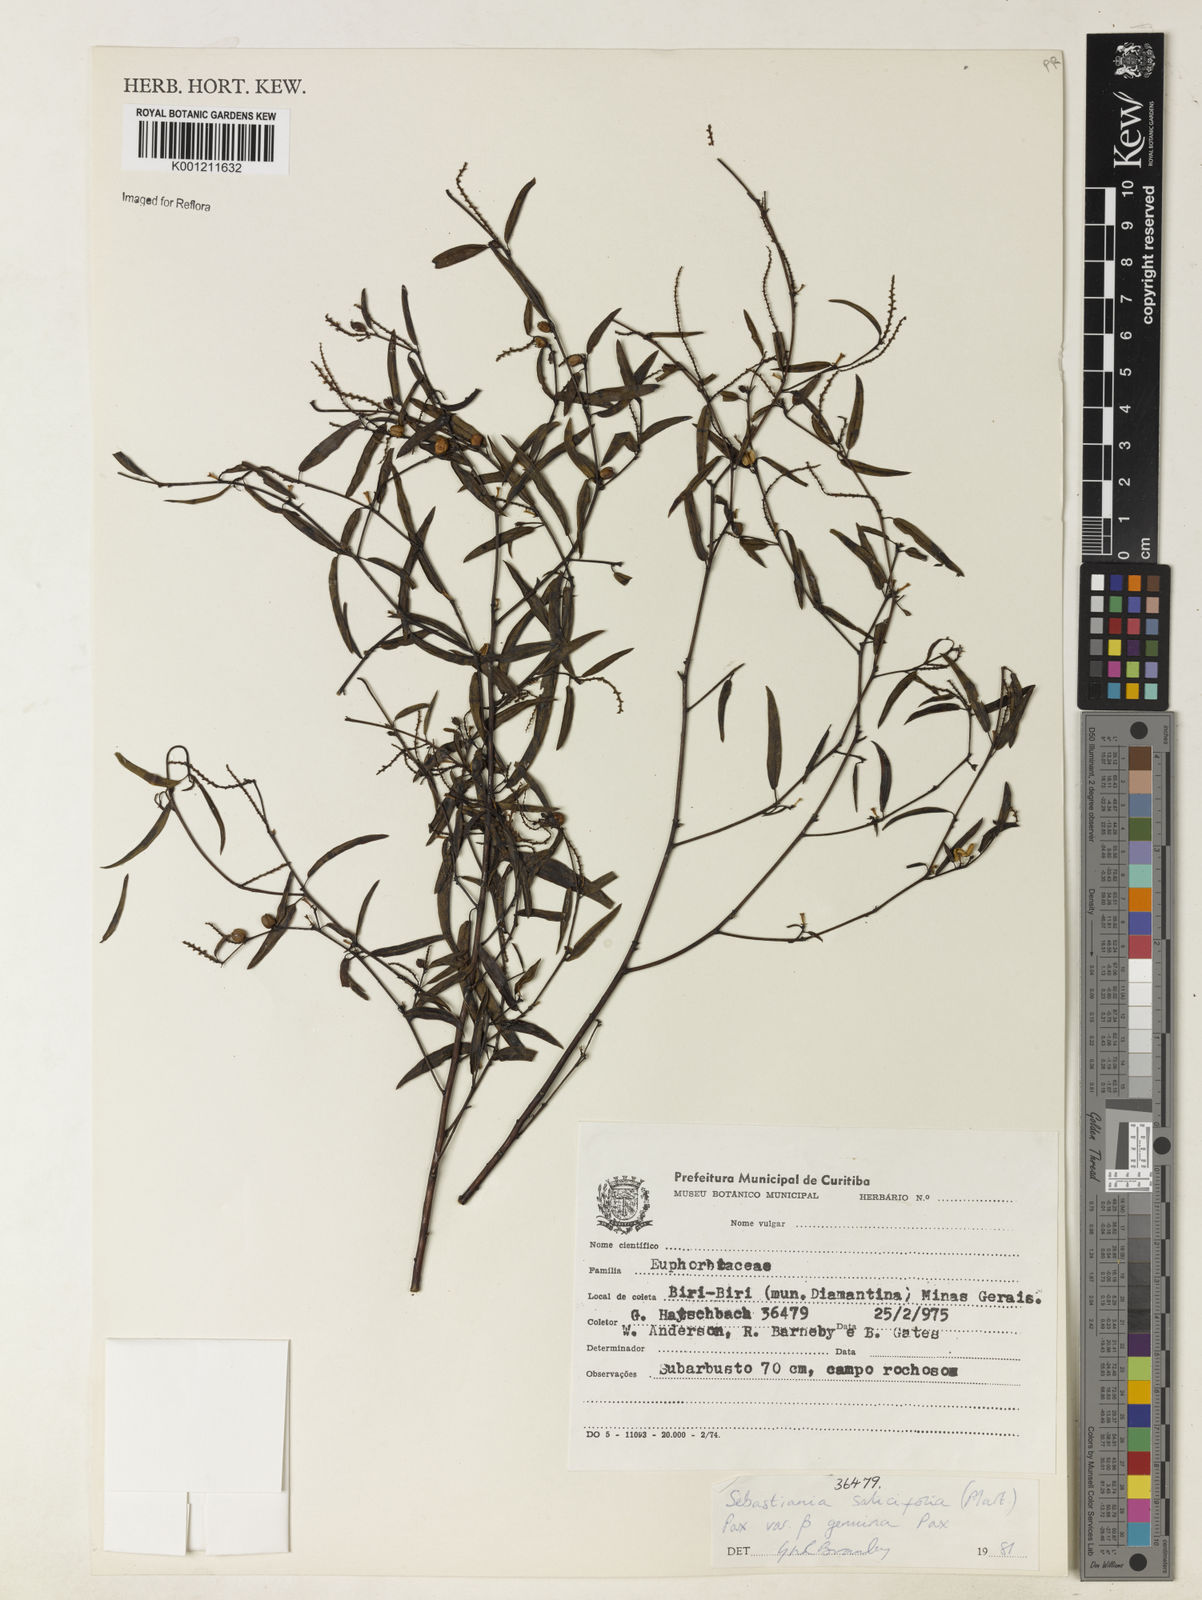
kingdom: Plantae
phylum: Tracheophyta
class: Magnoliopsida
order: Malpighiales
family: Euphorbiaceae
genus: Microstachys
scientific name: Microstachys
